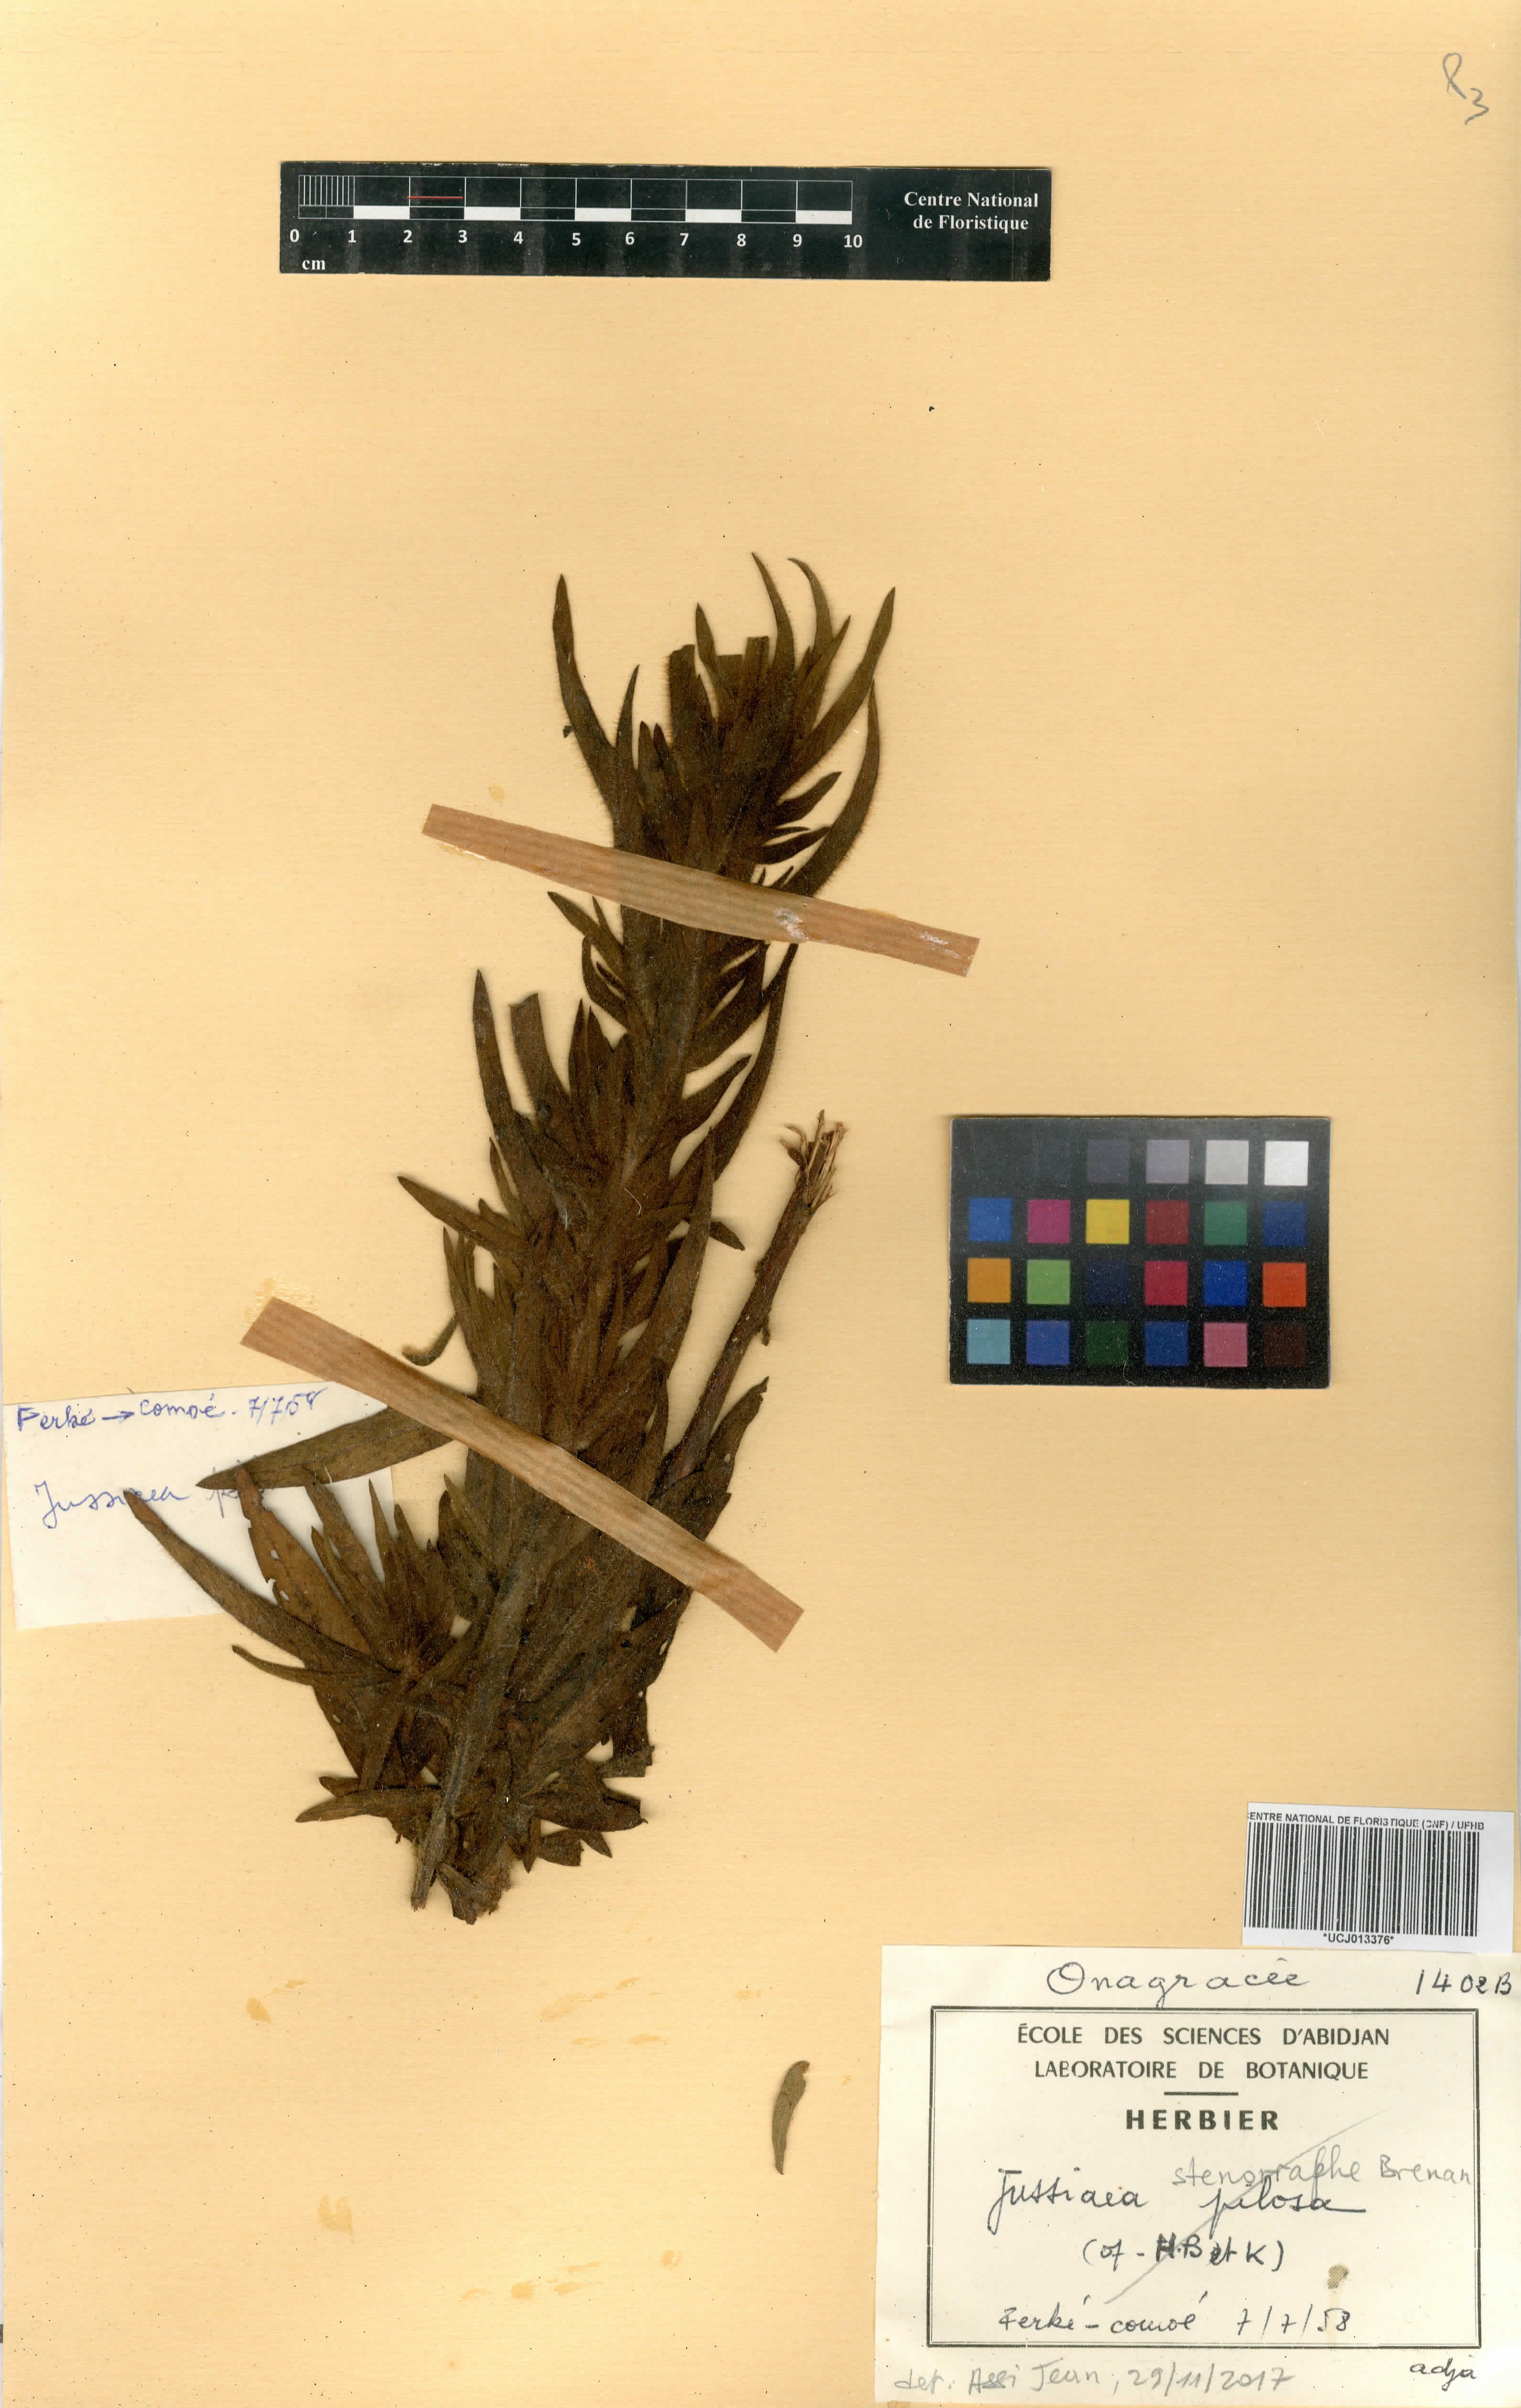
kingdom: Plantae
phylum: Tracheophyta
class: Magnoliopsida
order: Myrtales
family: Onagraceae
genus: Ludwigia
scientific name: Ludwigia stenorraphe
